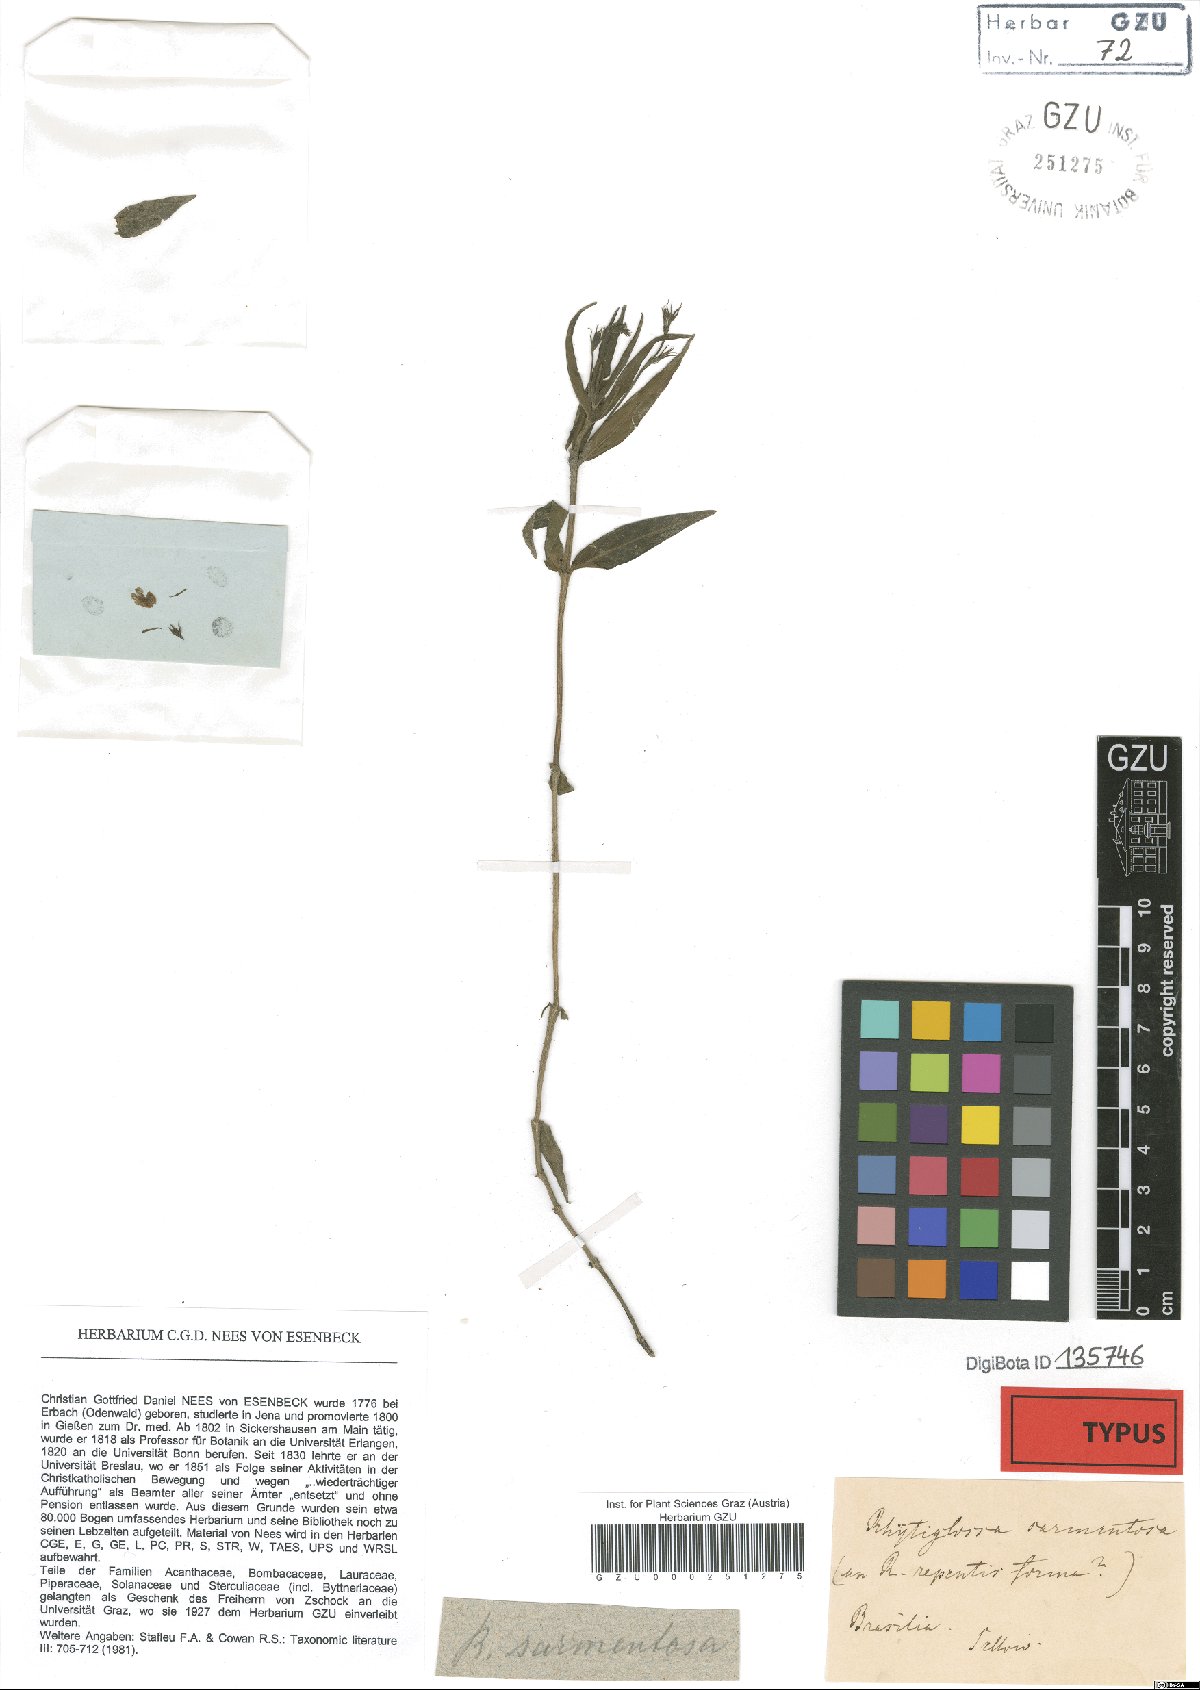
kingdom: Plantae
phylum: Tracheophyta
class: Magnoliopsida
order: Lamiales
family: Acanthaceae
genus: Justicia
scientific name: Justicia sarmentosa
